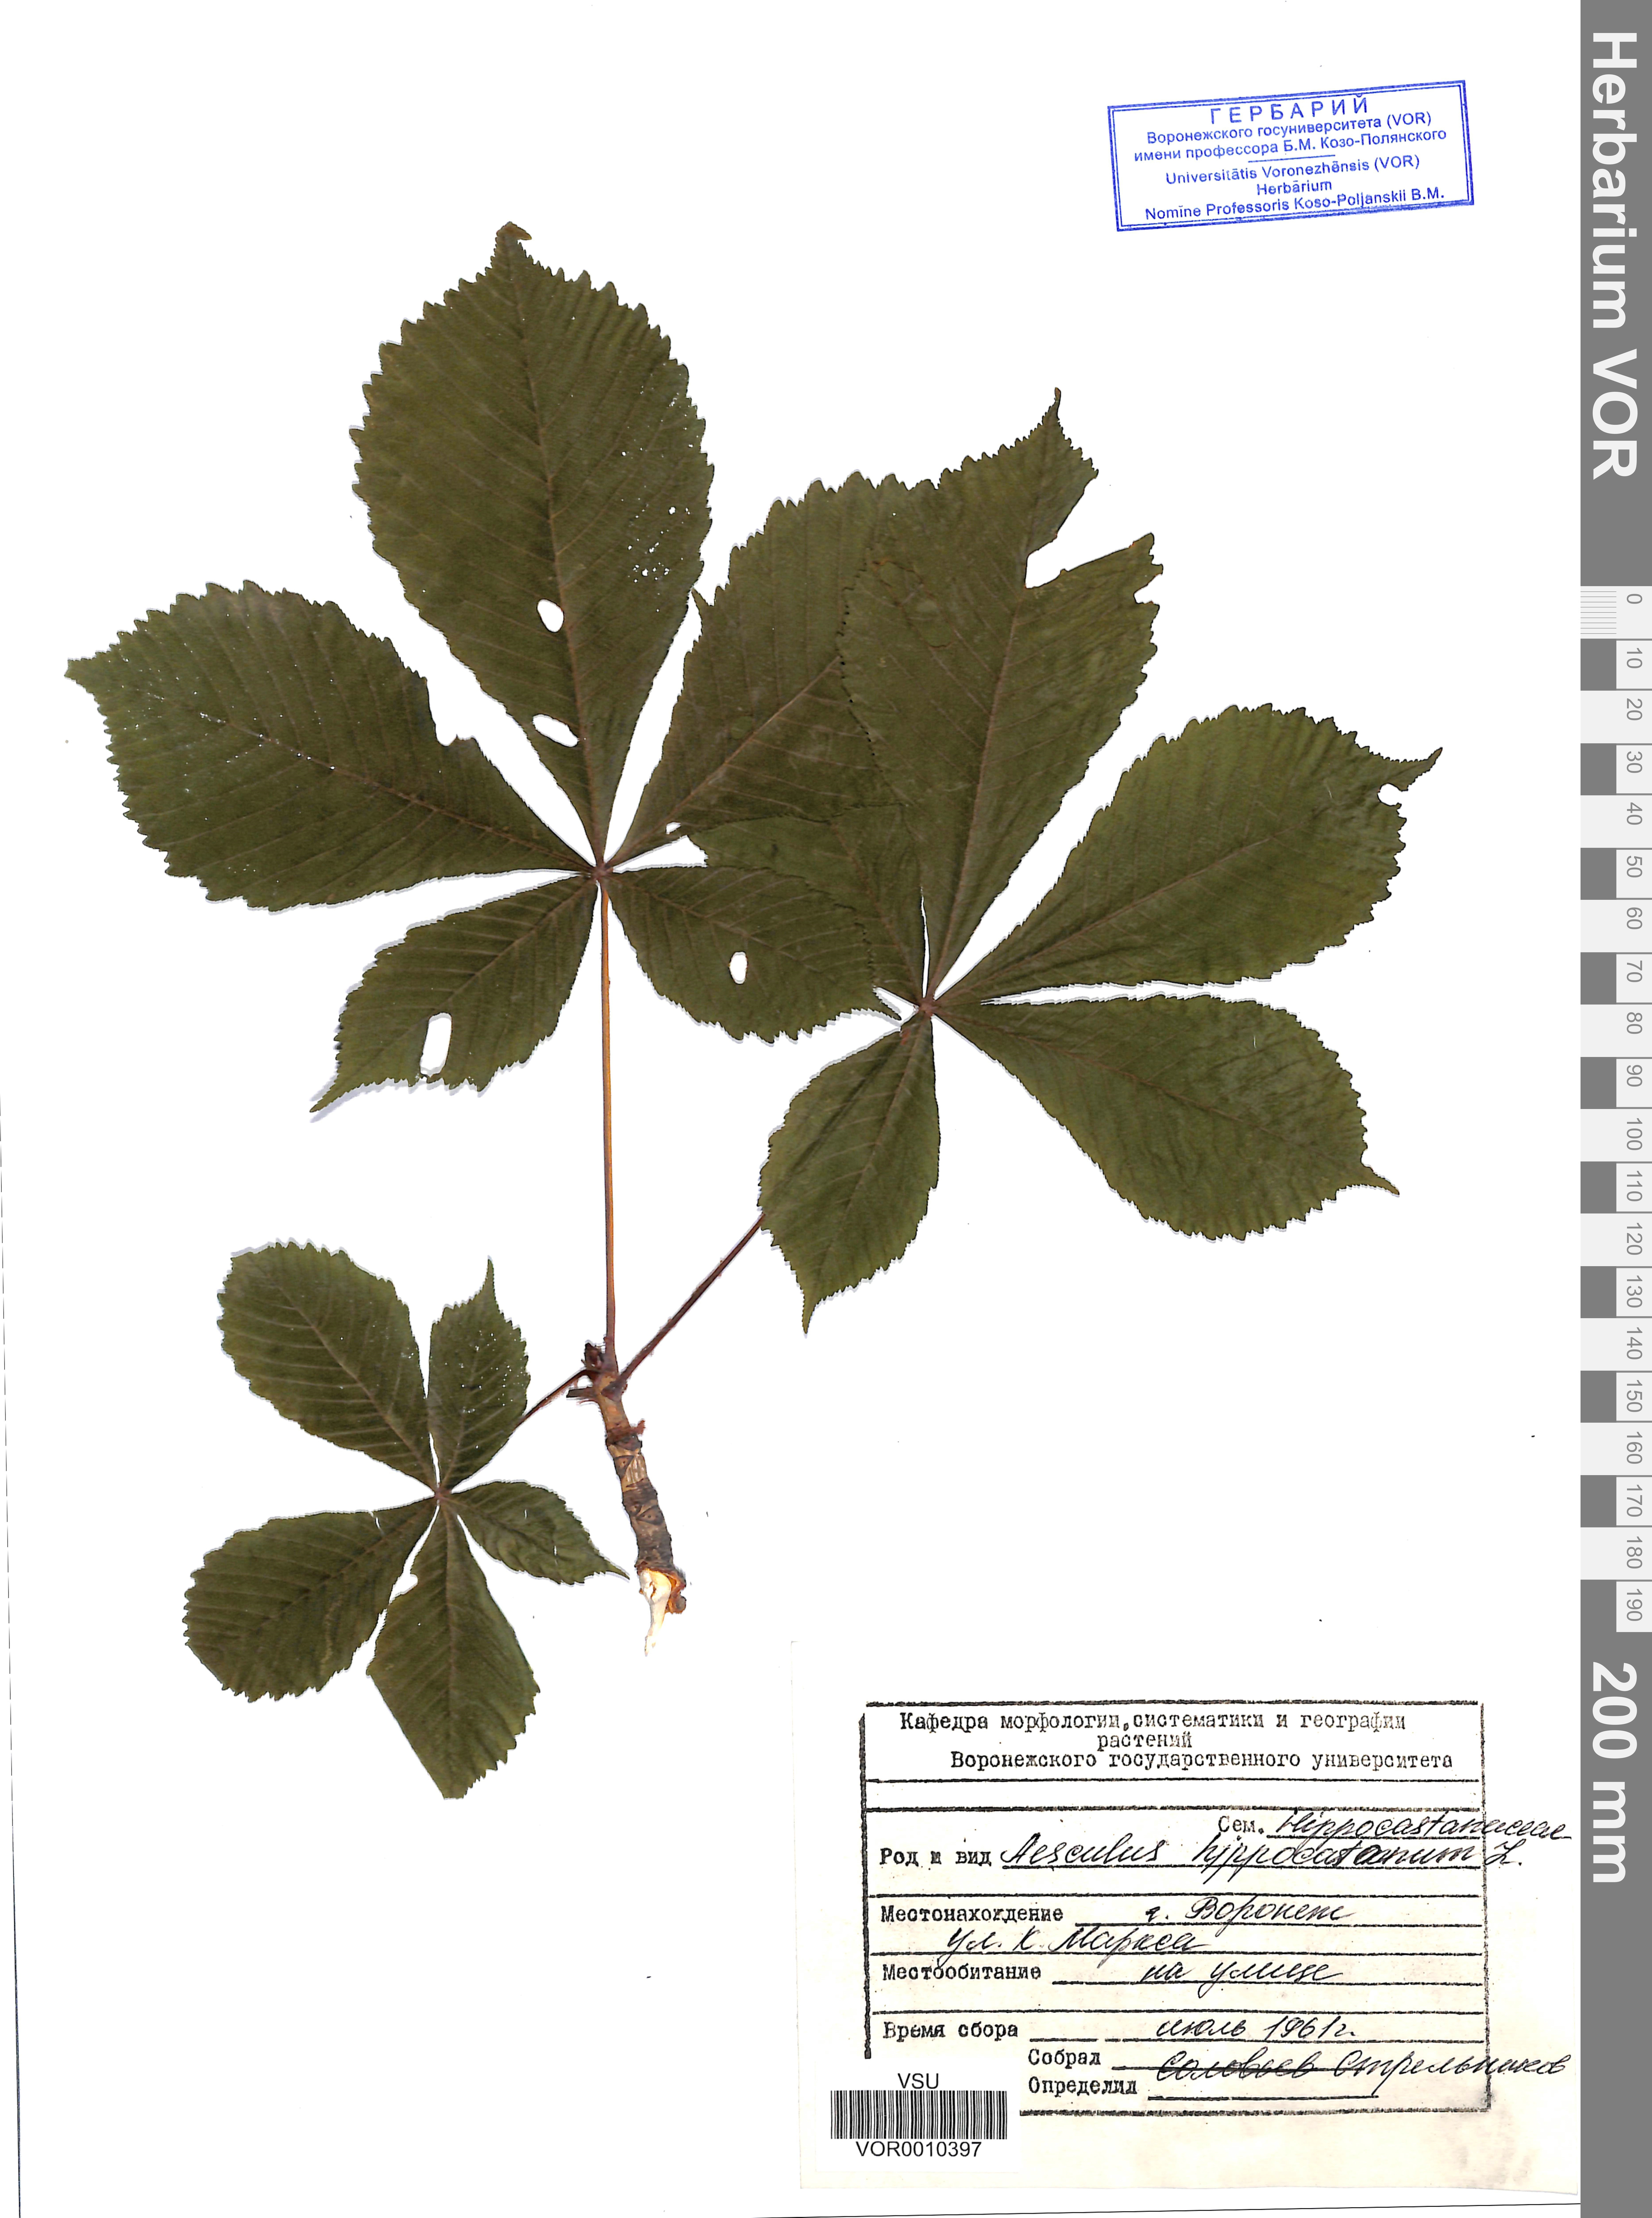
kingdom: Plantae
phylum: Tracheophyta
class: Magnoliopsida
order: Sapindales
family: Sapindaceae
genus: Aesculus
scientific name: Aesculus hippocastanum
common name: Horse-chestnut
